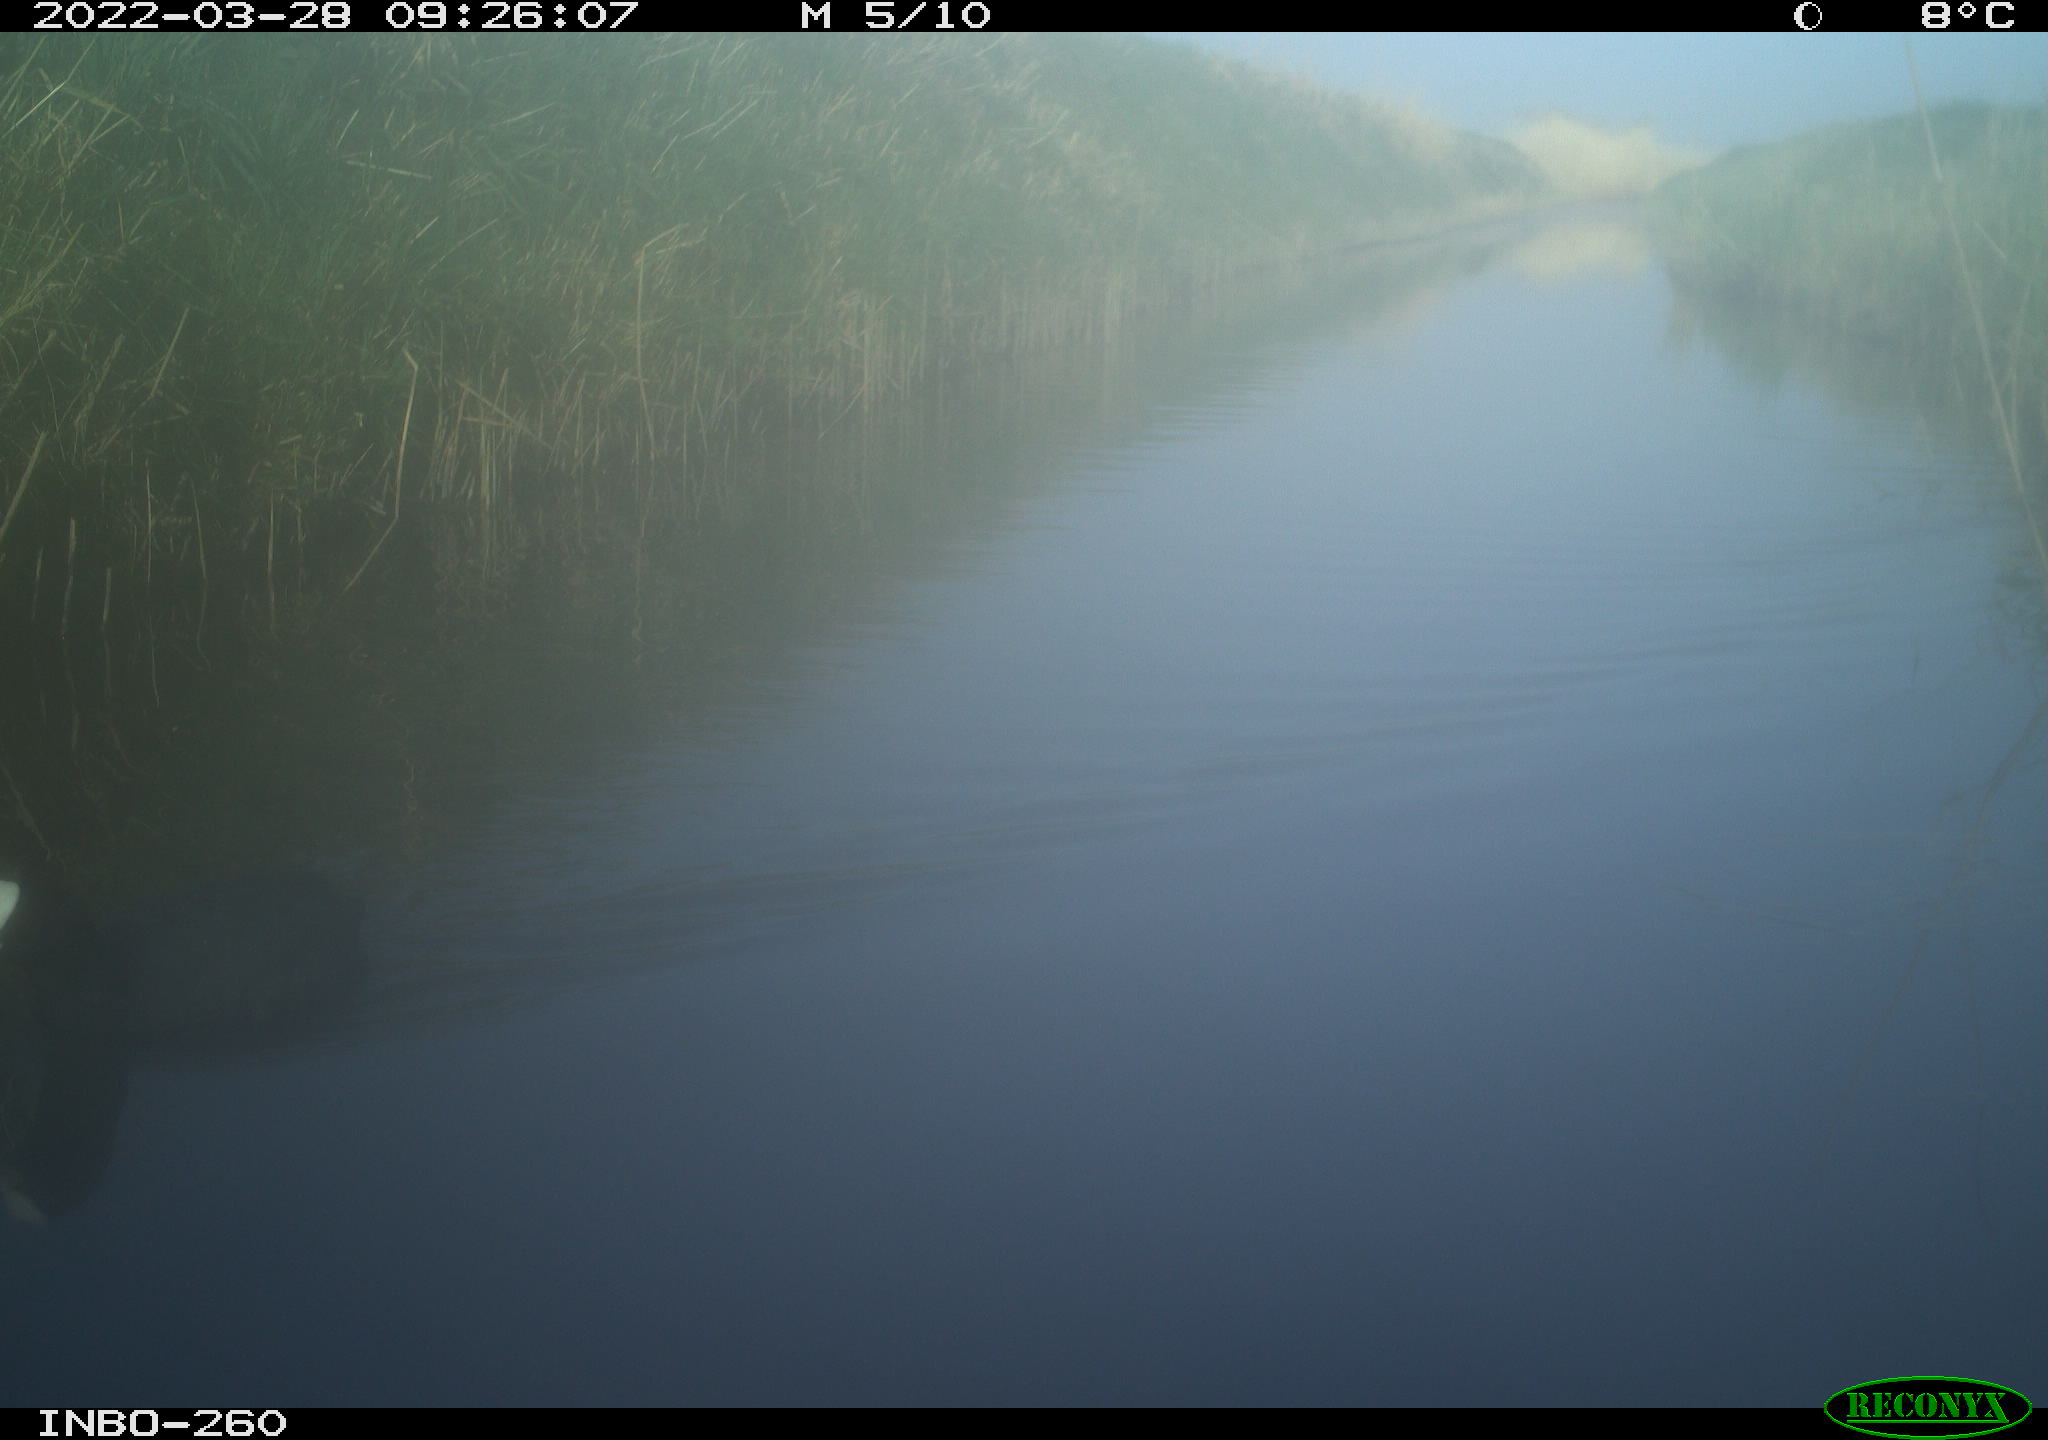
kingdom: Animalia
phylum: Chordata
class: Aves
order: Gruiformes
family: Rallidae
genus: Fulica
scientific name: Fulica atra
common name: Eurasian coot
